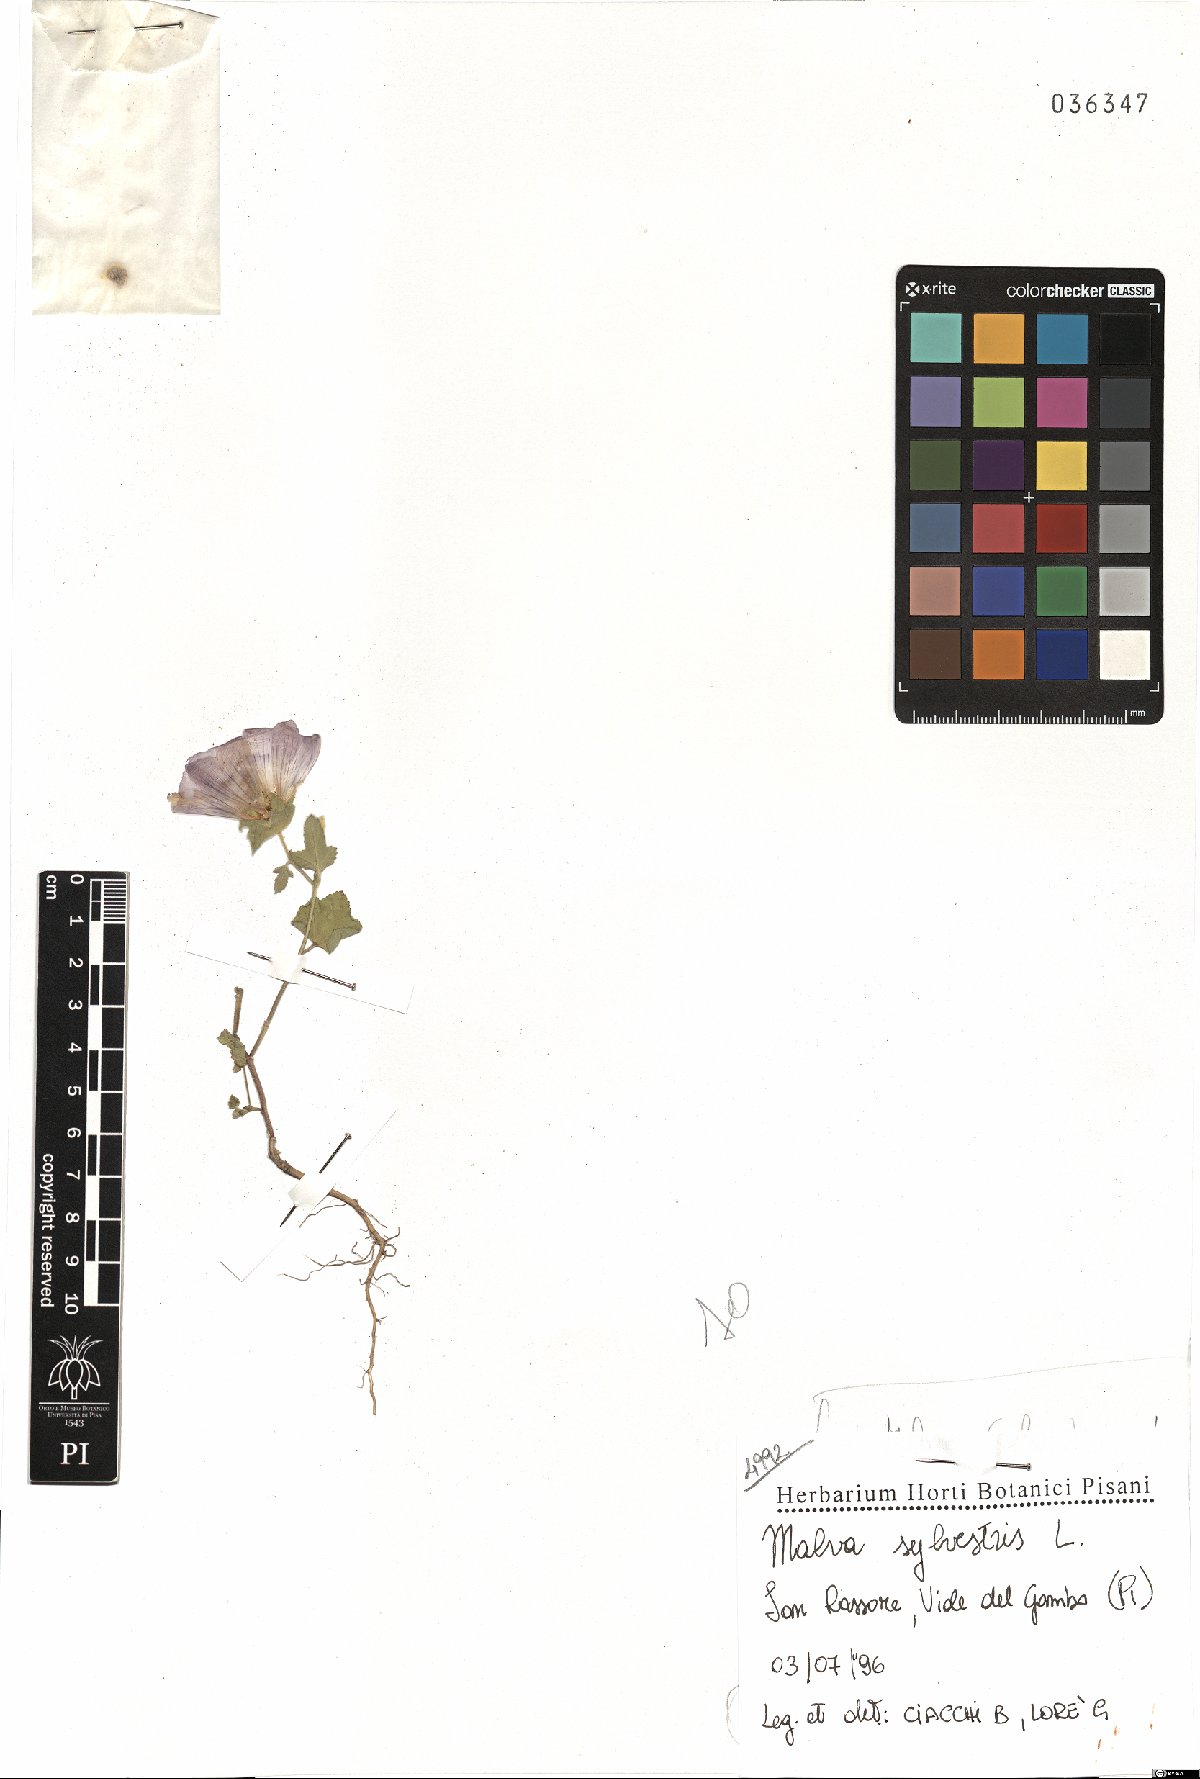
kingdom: Plantae
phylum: Tracheophyta
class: Magnoliopsida
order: Malvales
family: Malvaceae
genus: Malva
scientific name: Malva sylvestris
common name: Common mallow
